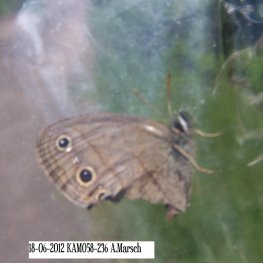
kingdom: Animalia
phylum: Arthropoda
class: Insecta
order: Lepidoptera
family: Nymphalidae
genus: Euptychia
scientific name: Euptychia cymela
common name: Little Wood Satyr
